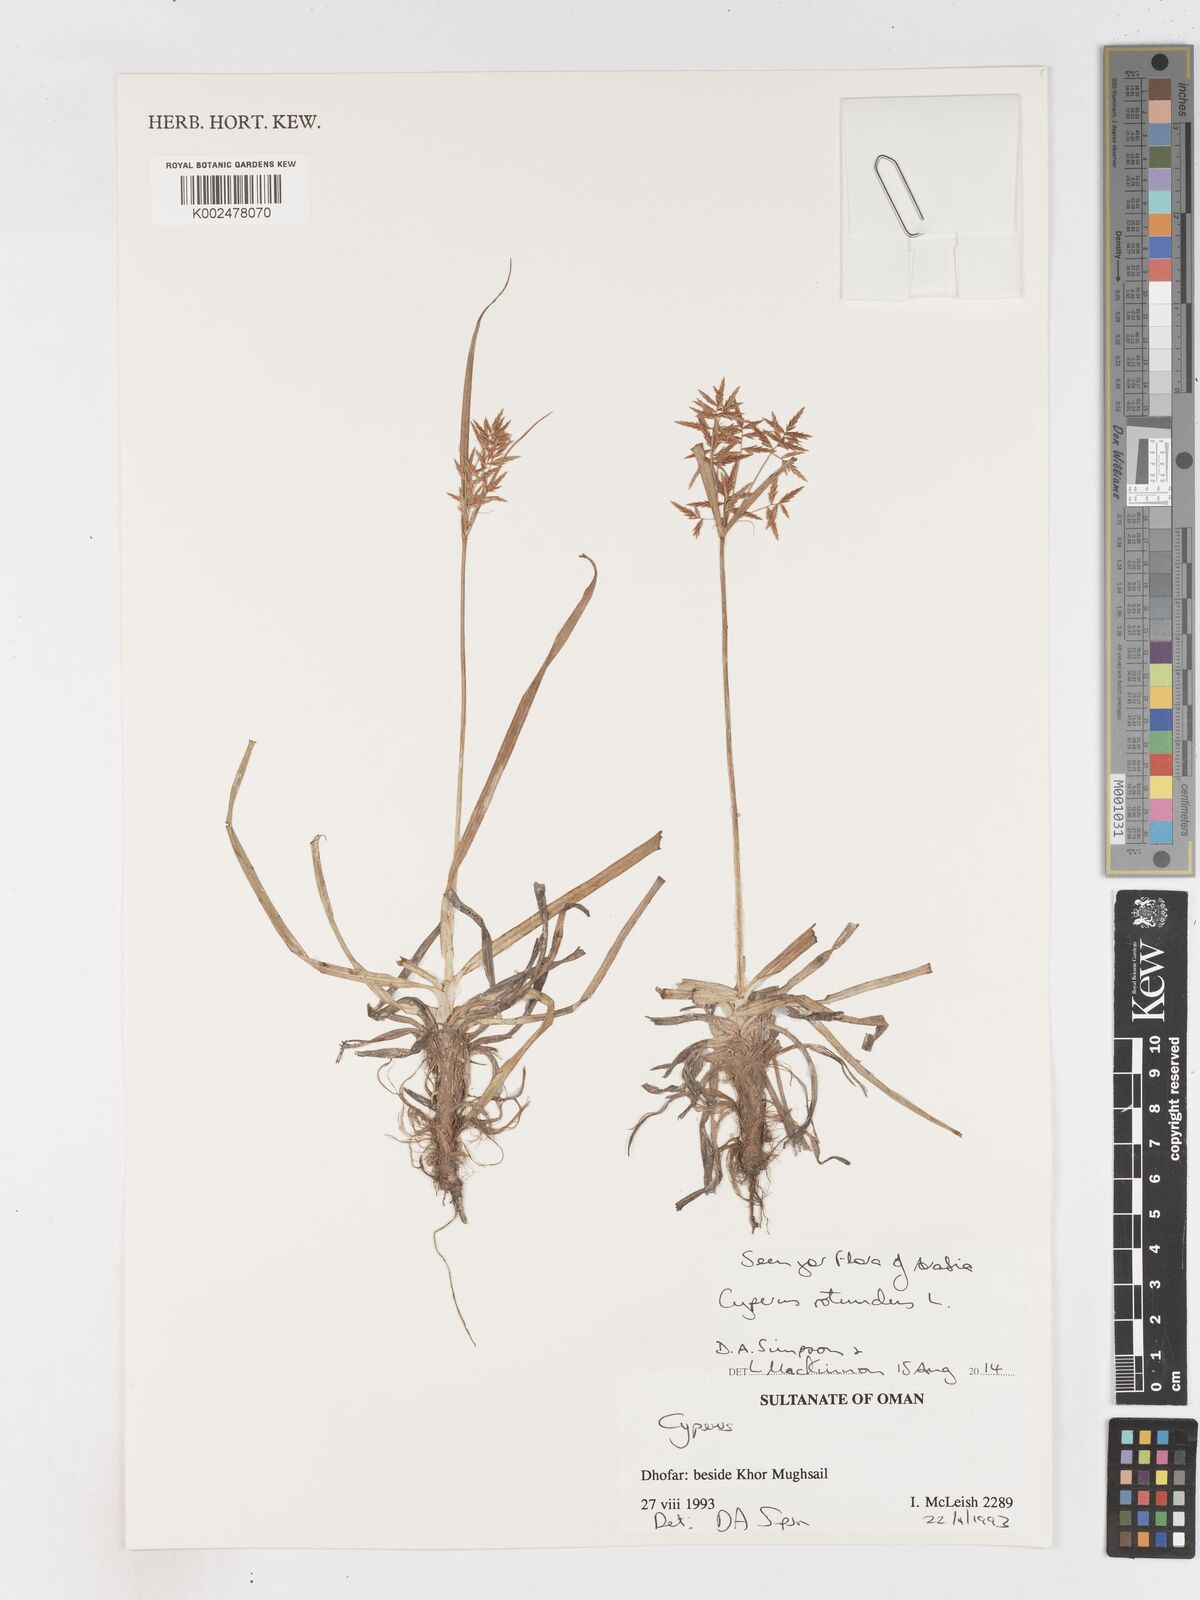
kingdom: Plantae
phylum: Tracheophyta
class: Liliopsida
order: Poales
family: Cyperaceae
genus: Cyperus
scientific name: Cyperus rotundus
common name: Nutgrass
